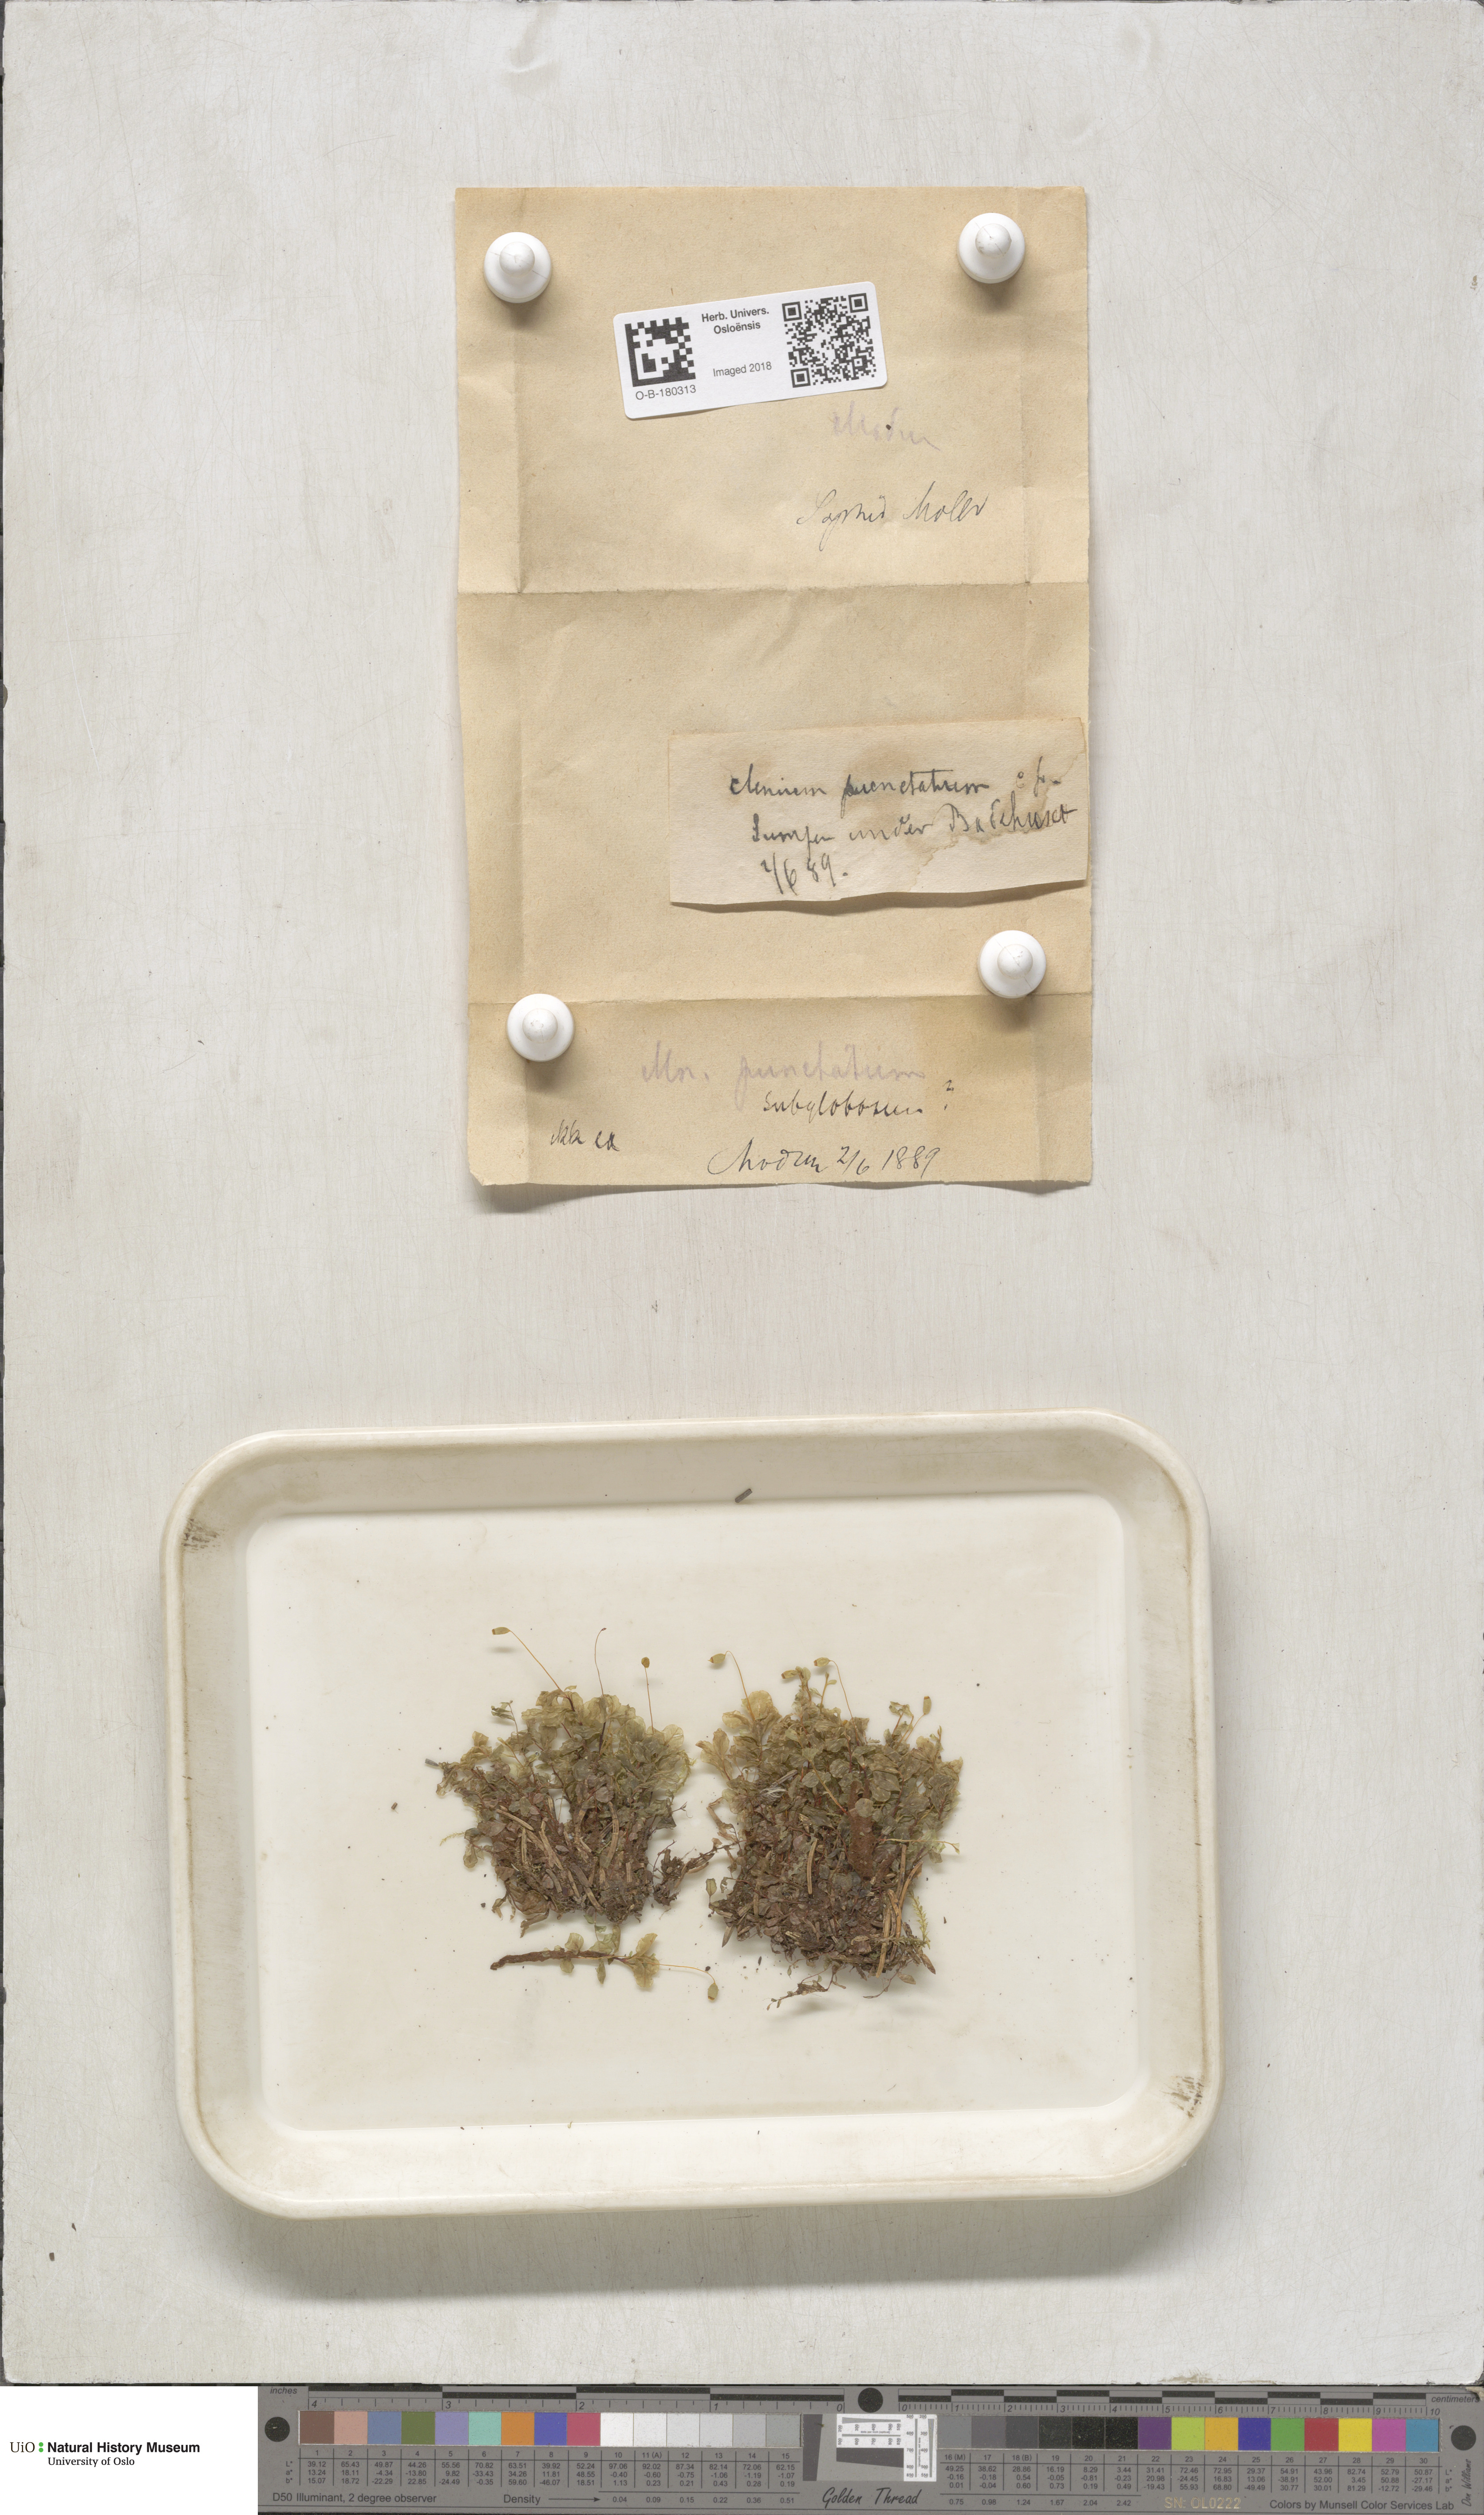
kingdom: Plantae
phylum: Bryophyta
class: Bryopsida
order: Bryales
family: Mniaceae
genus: Rhizomnium
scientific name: Rhizomnium punctatum
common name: Dotted leafy moss
